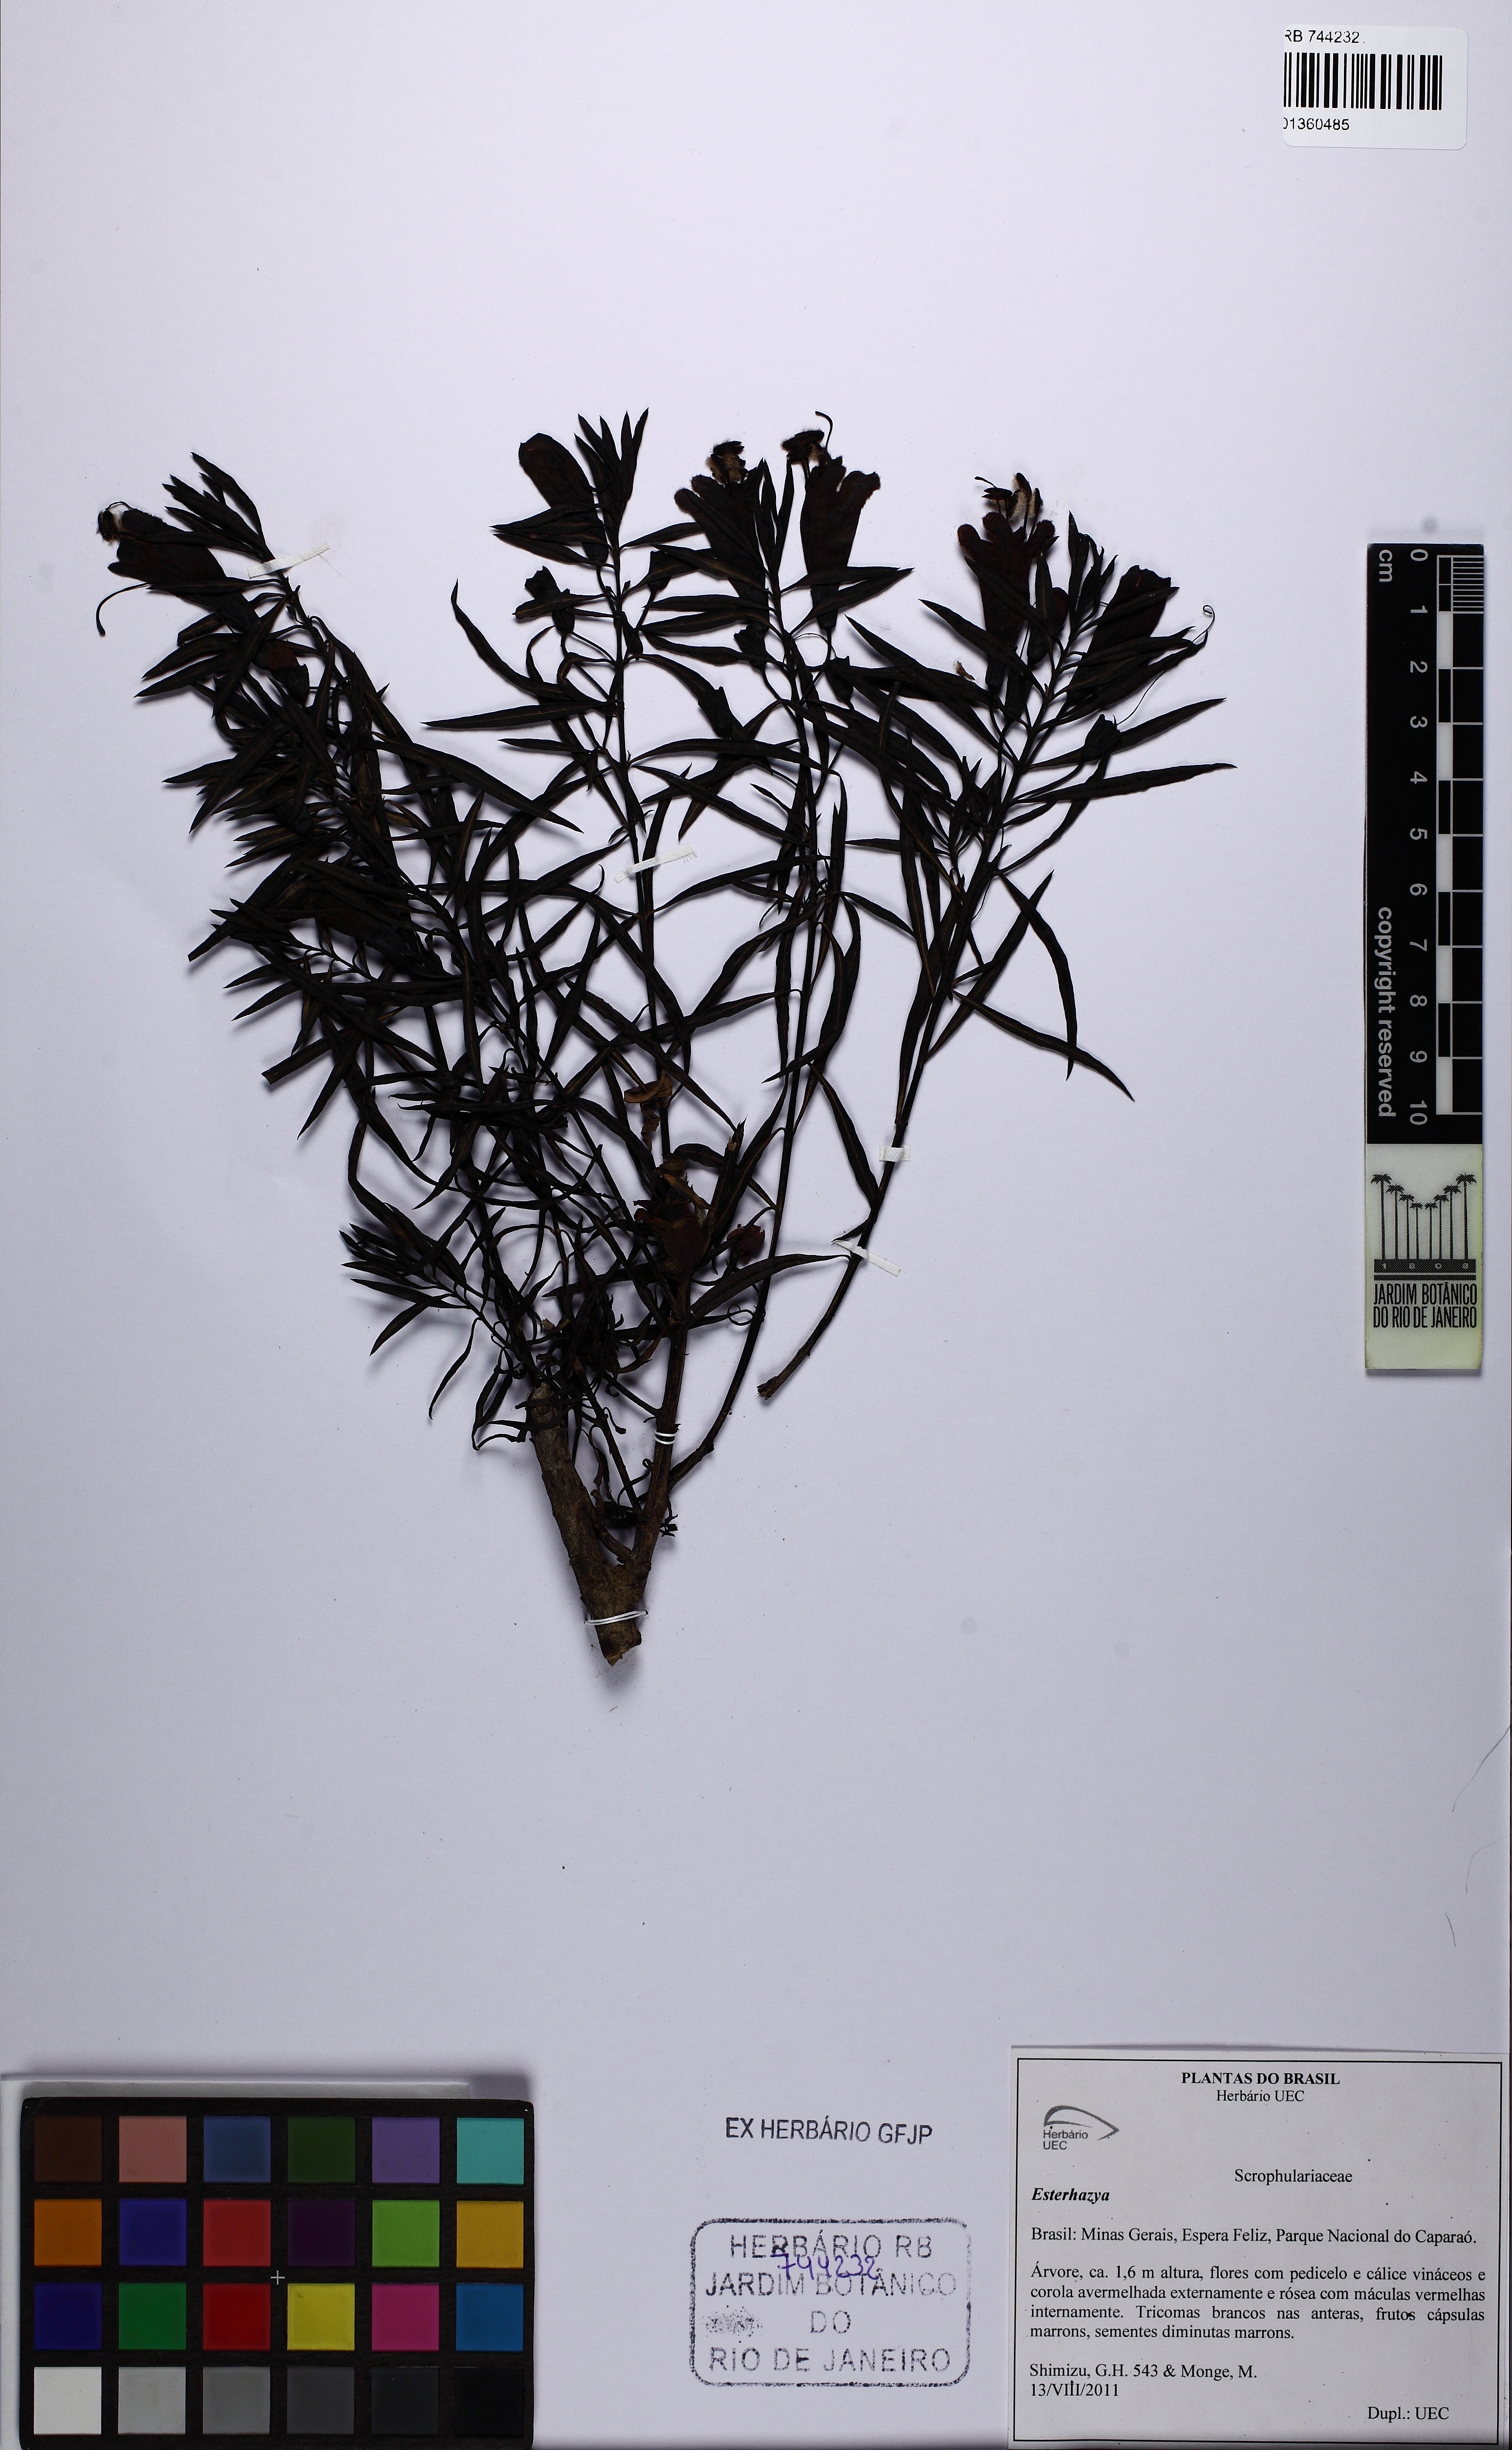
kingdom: Plantae
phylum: Tracheophyta
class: Magnoliopsida
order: Lamiales
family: Orobanchaceae
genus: Esterhazya
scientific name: Esterhazya
